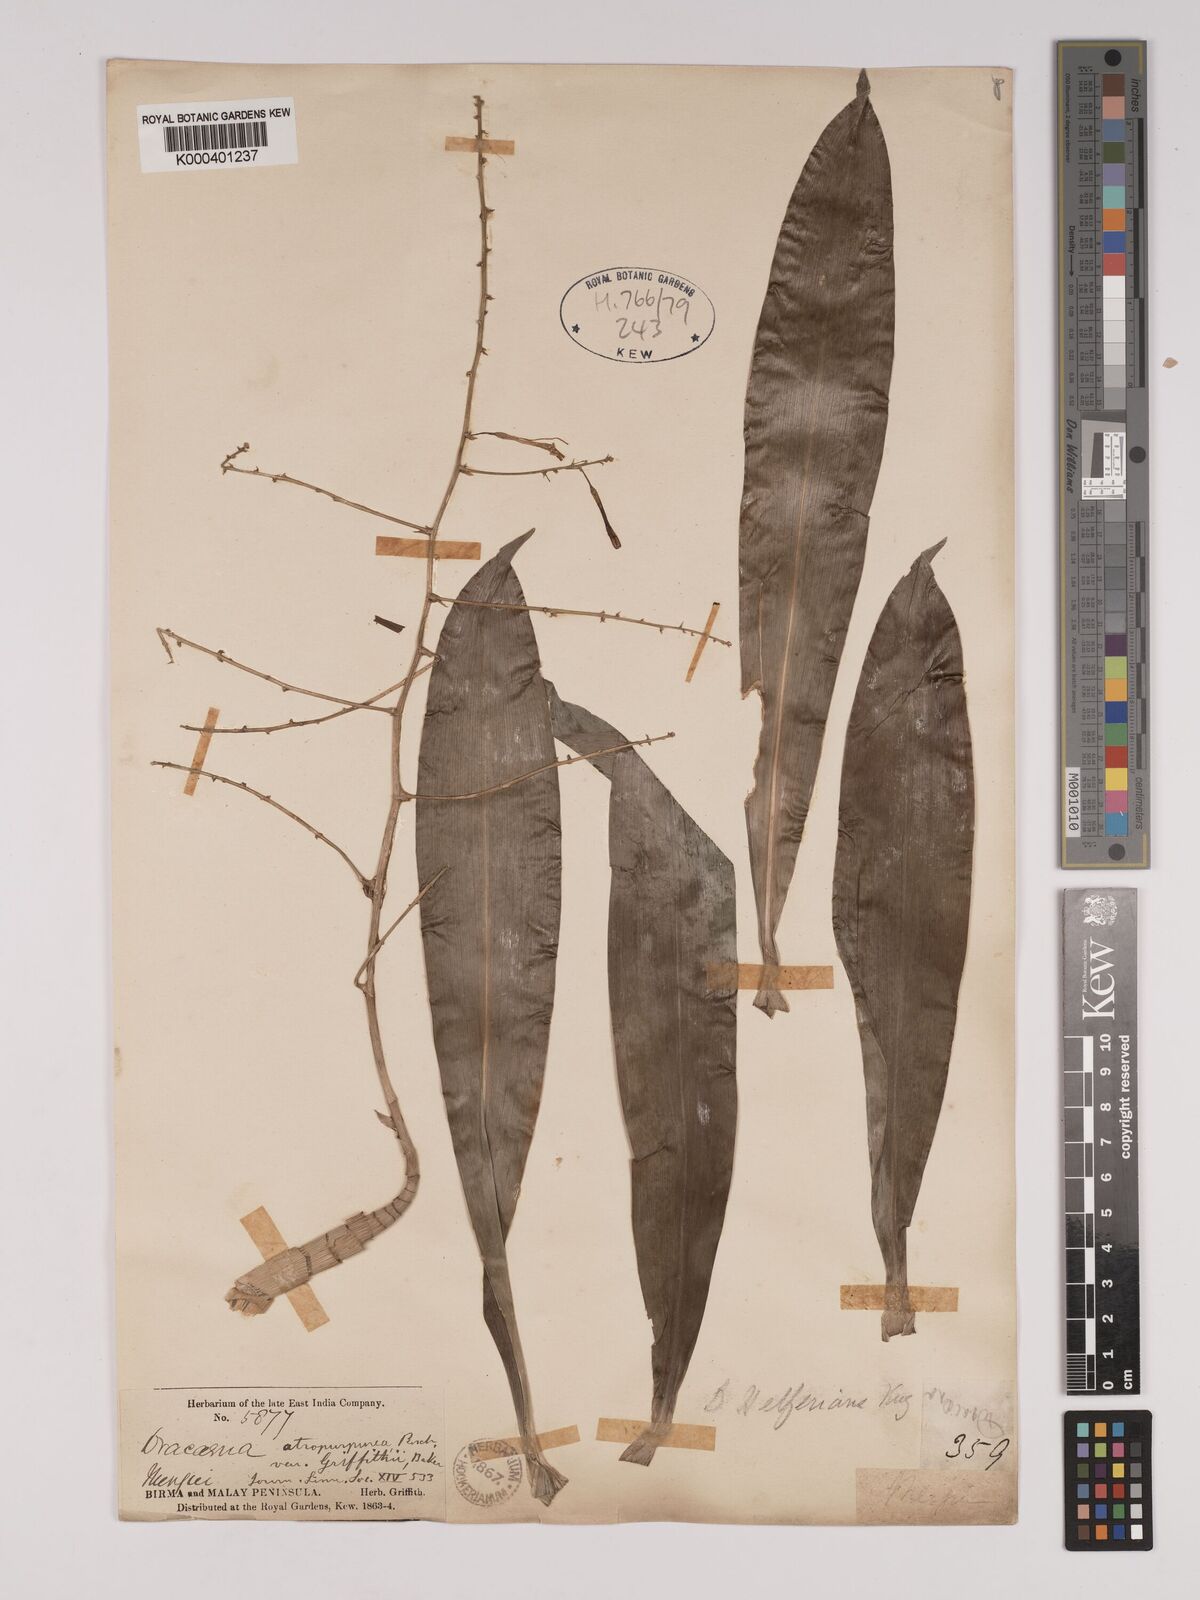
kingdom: Plantae
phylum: Tracheophyta
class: Liliopsida
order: Asparagales
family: Asparagaceae
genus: Dracaena
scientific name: Dracaena griffithii
